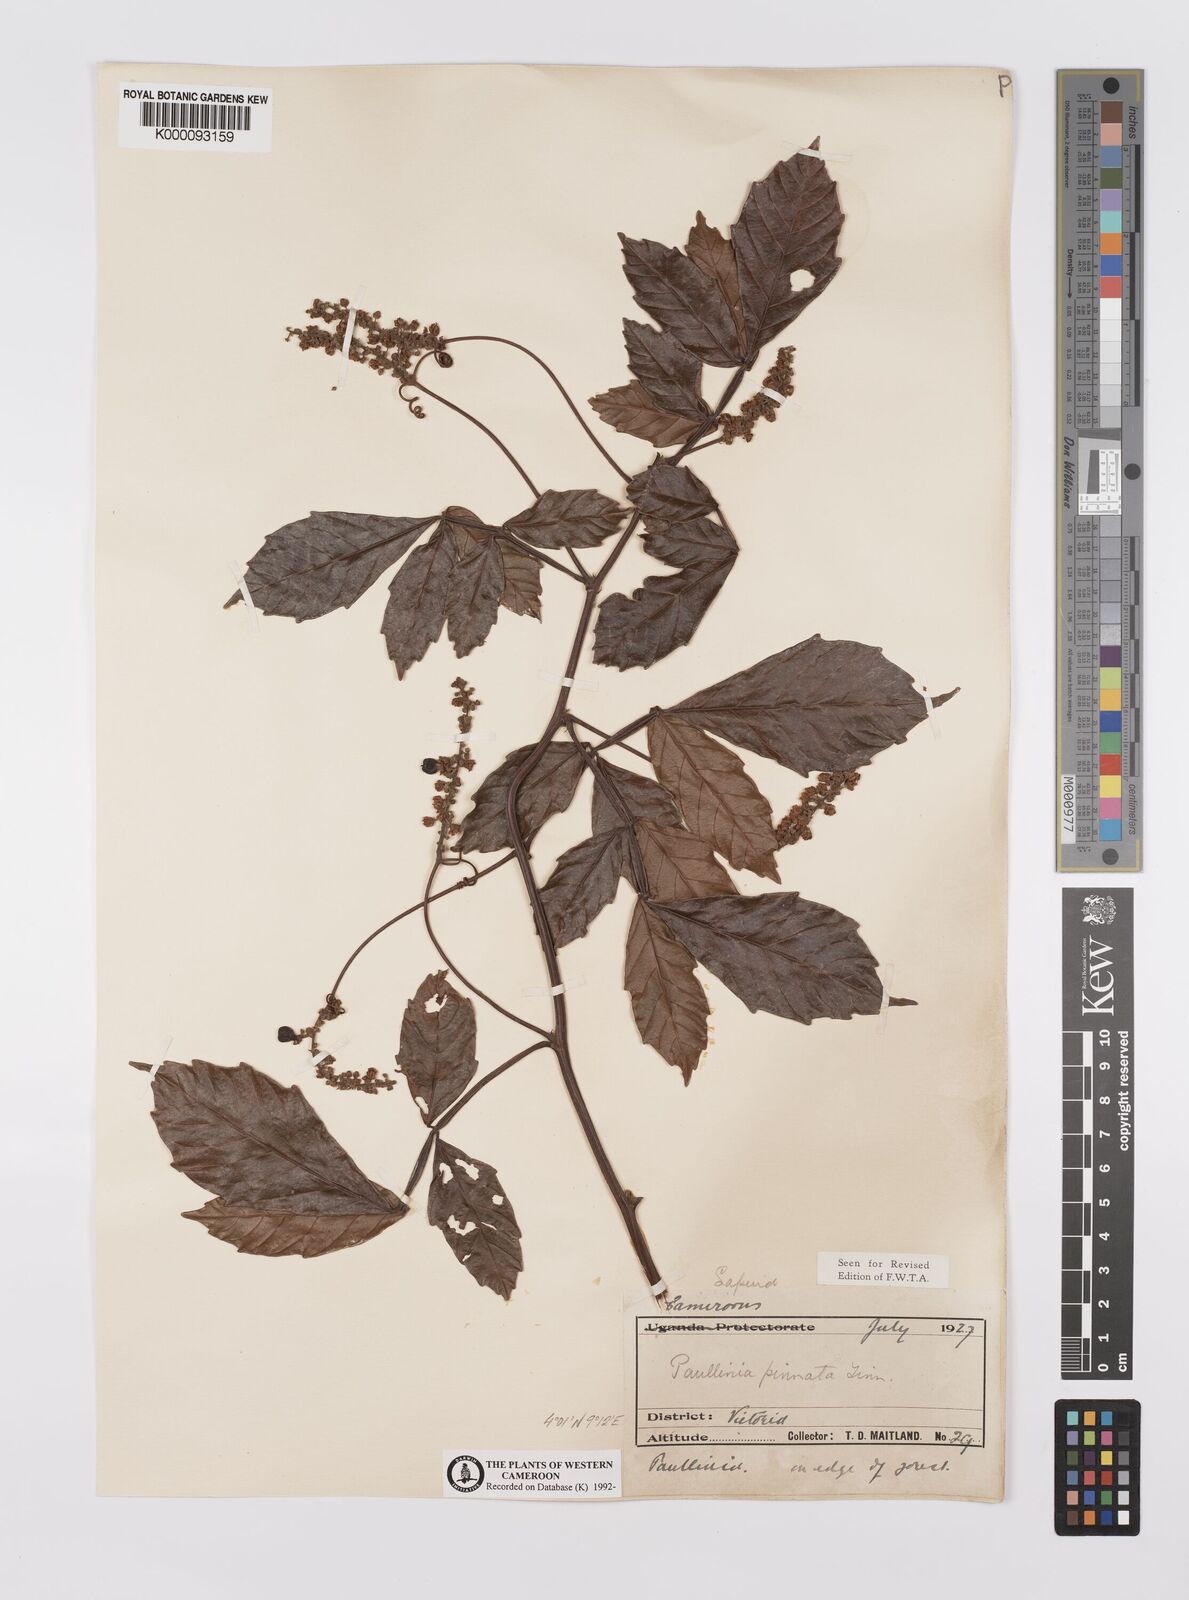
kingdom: Plantae
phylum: Tracheophyta
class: Magnoliopsida
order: Sapindales
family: Sapindaceae
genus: Paullinia
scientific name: Paullinia pinnata
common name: Barbasco
